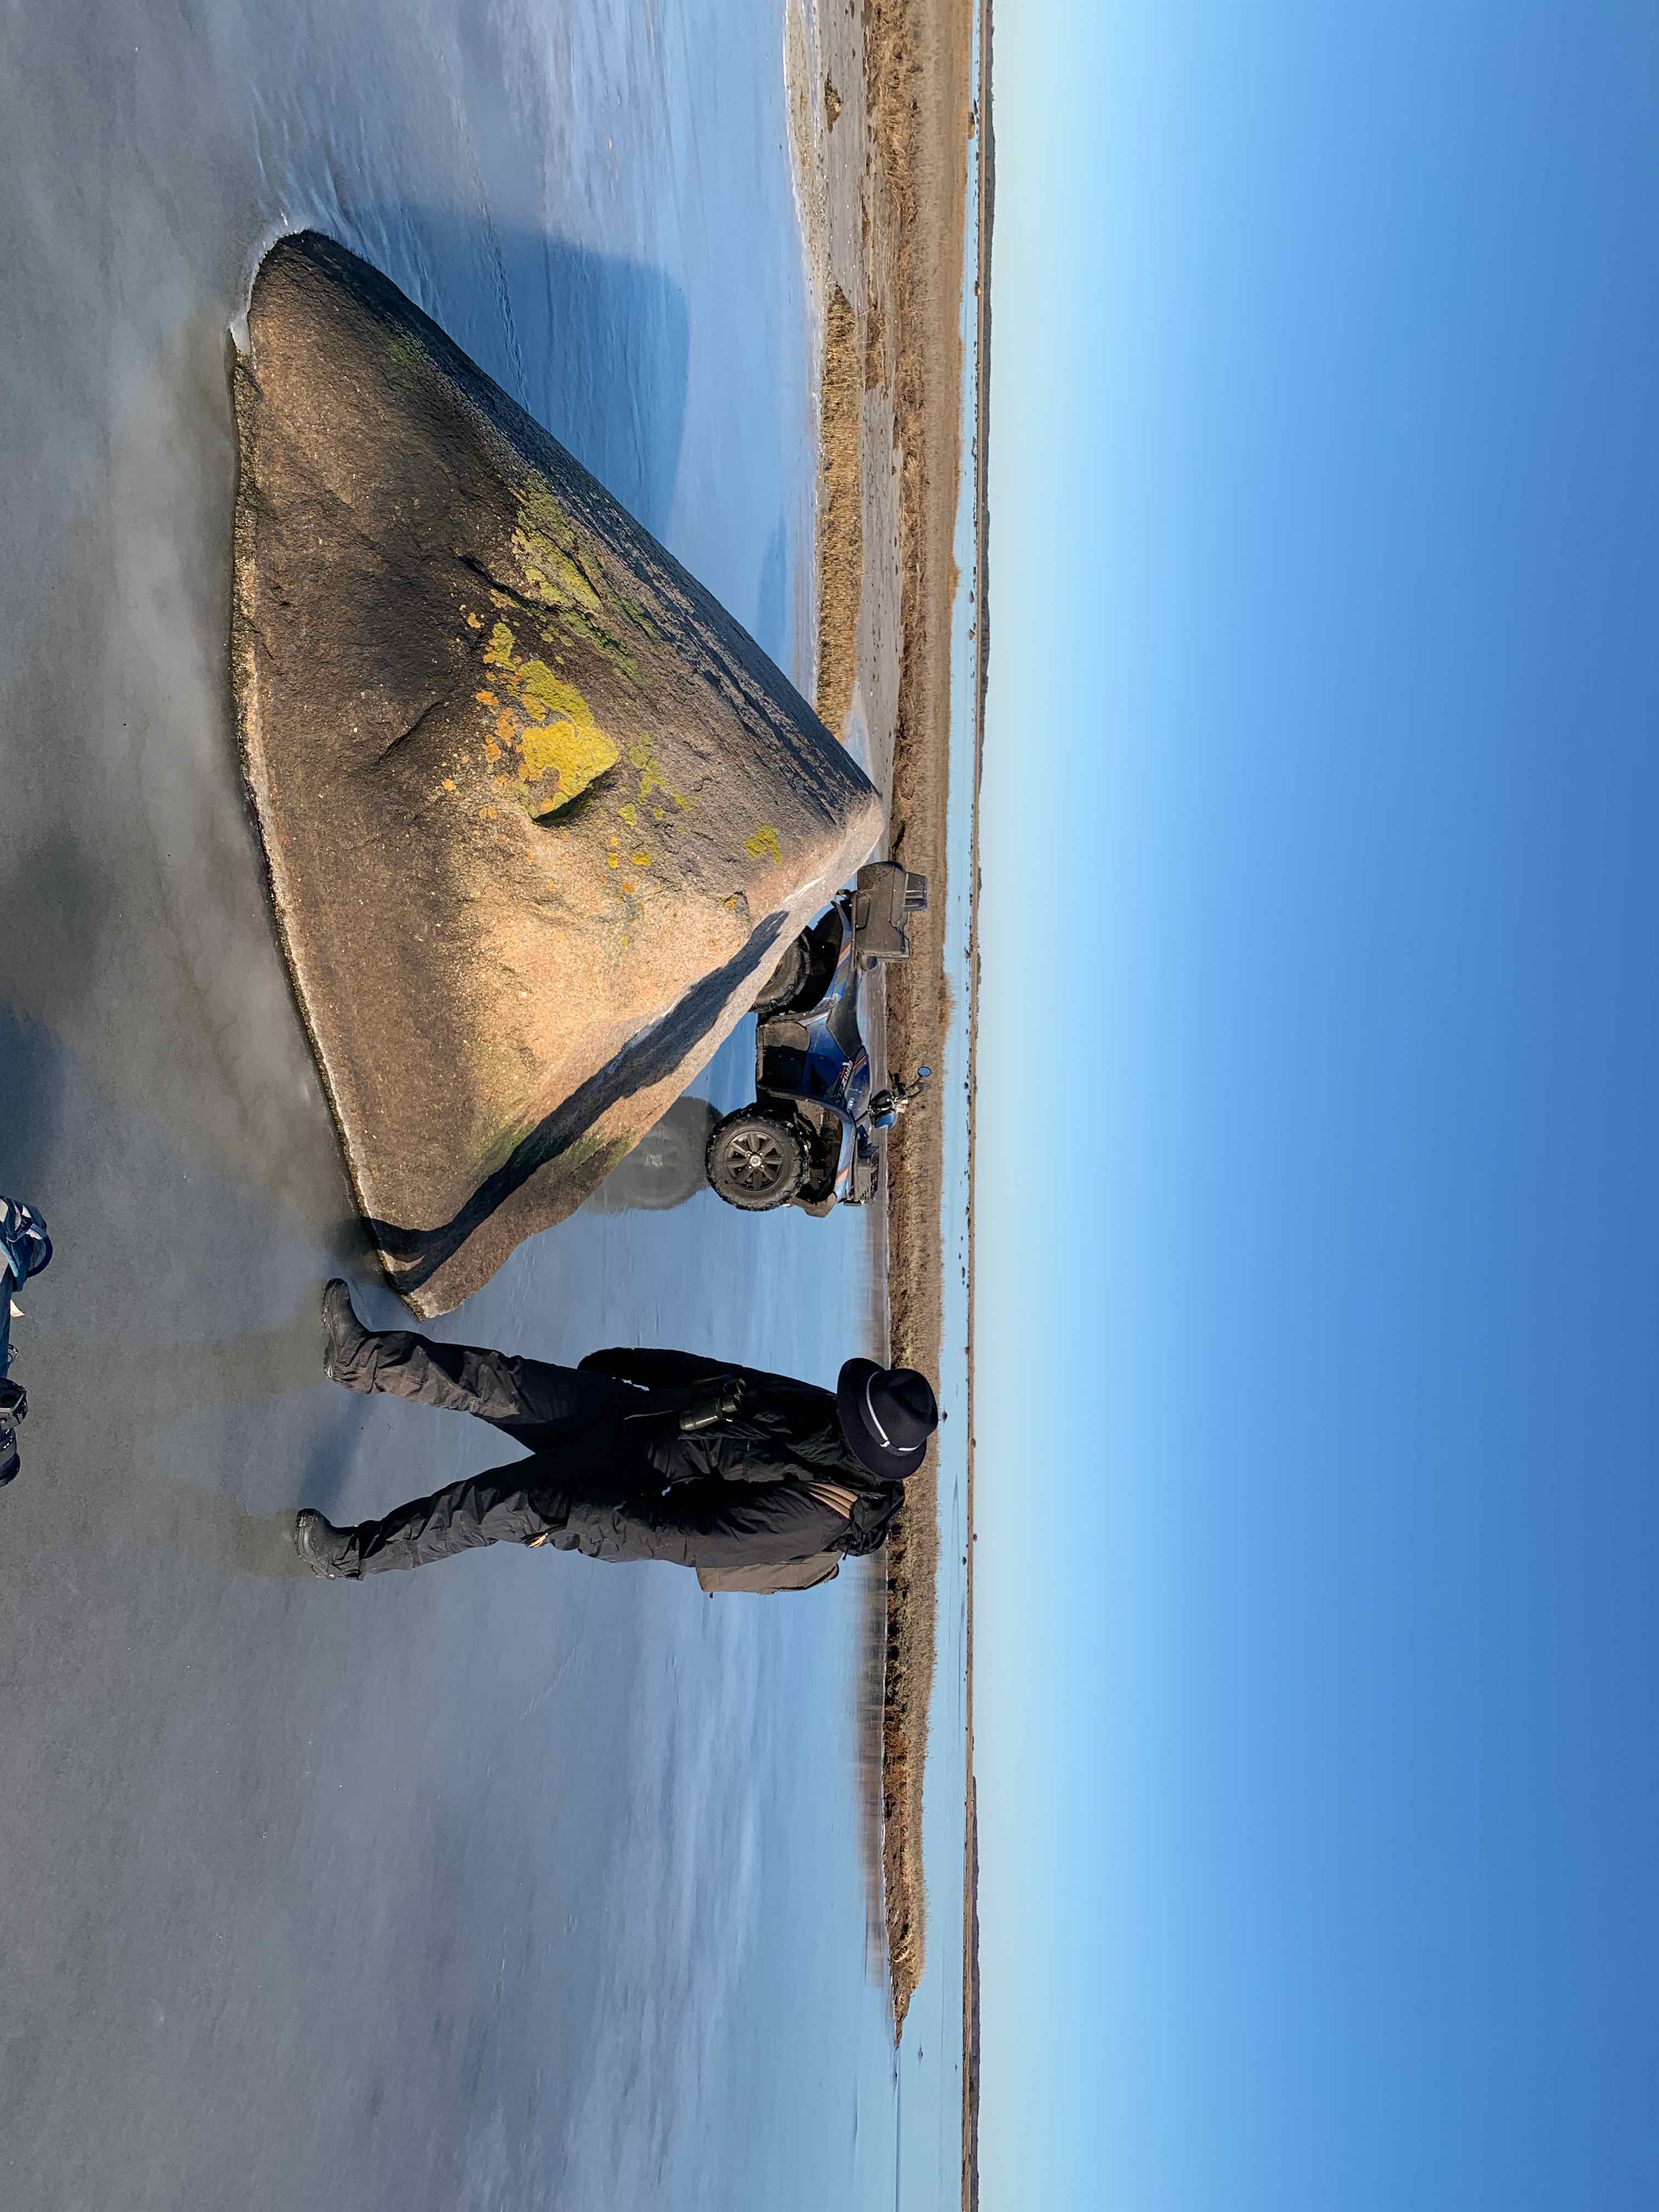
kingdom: Fungi
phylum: Ascomycota
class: Lecanoromycetes
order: Teloschistales
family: Teloschistaceae
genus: Verrucoplaca
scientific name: Verrucoplaca verruculifera
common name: koldkyst-orangelav
